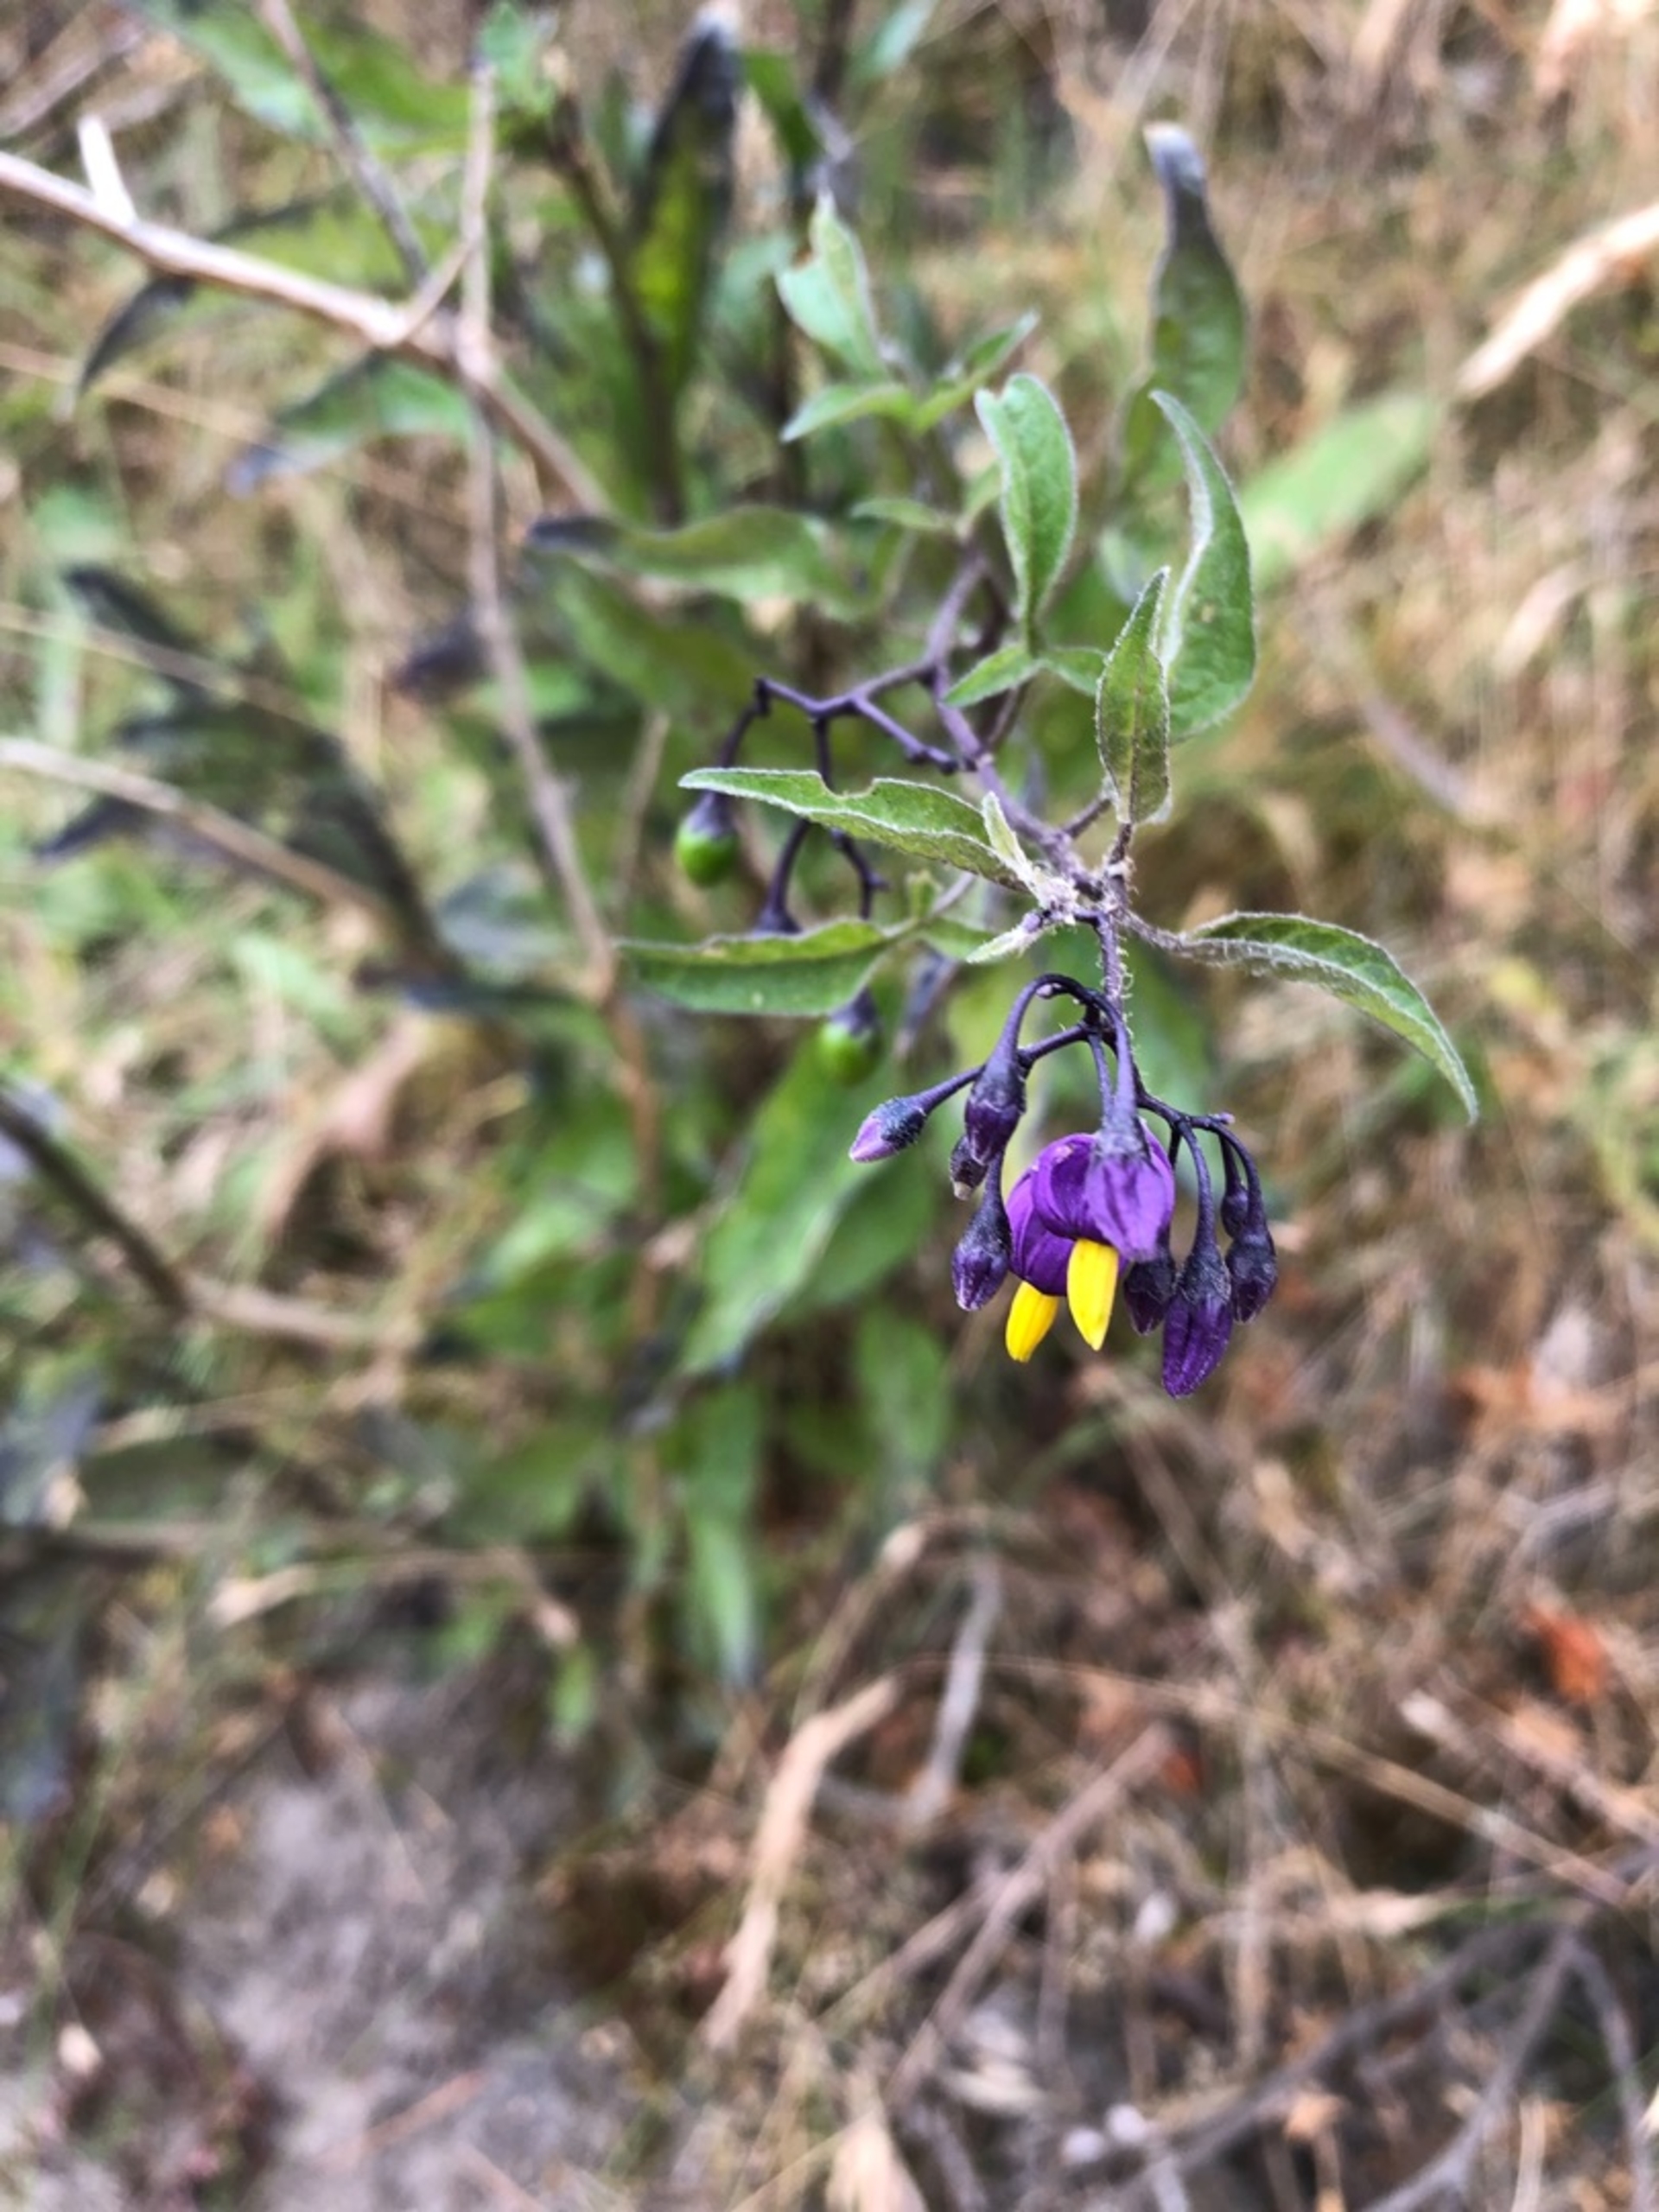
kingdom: Plantae
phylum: Tracheophyta
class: Magnoliopsida
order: Solanales
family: Solanaceae
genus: Solanum
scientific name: Solanum dulcamara
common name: Bittersød natskygge
